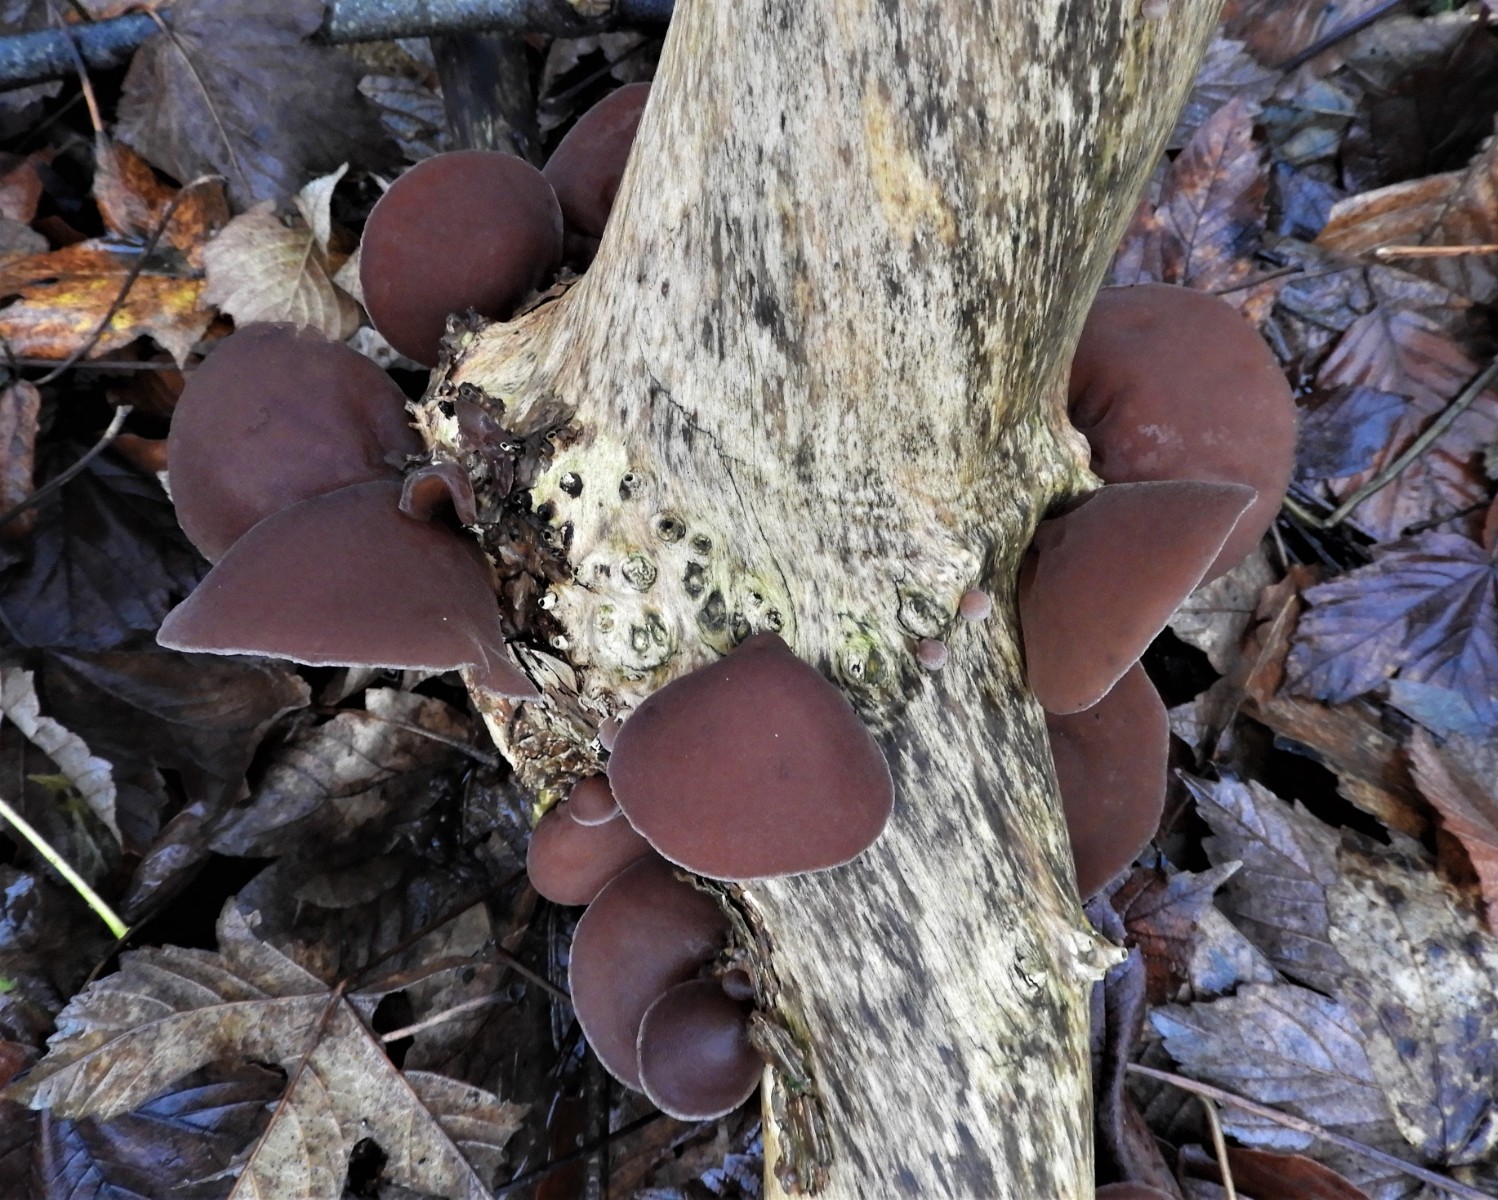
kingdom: Fungi
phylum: Basidiomycota
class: Agaricomycetes
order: Auriculariales
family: Auriculariaceae
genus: Auricularia
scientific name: Auricularia auricula-judae
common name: almindelig judasøre
